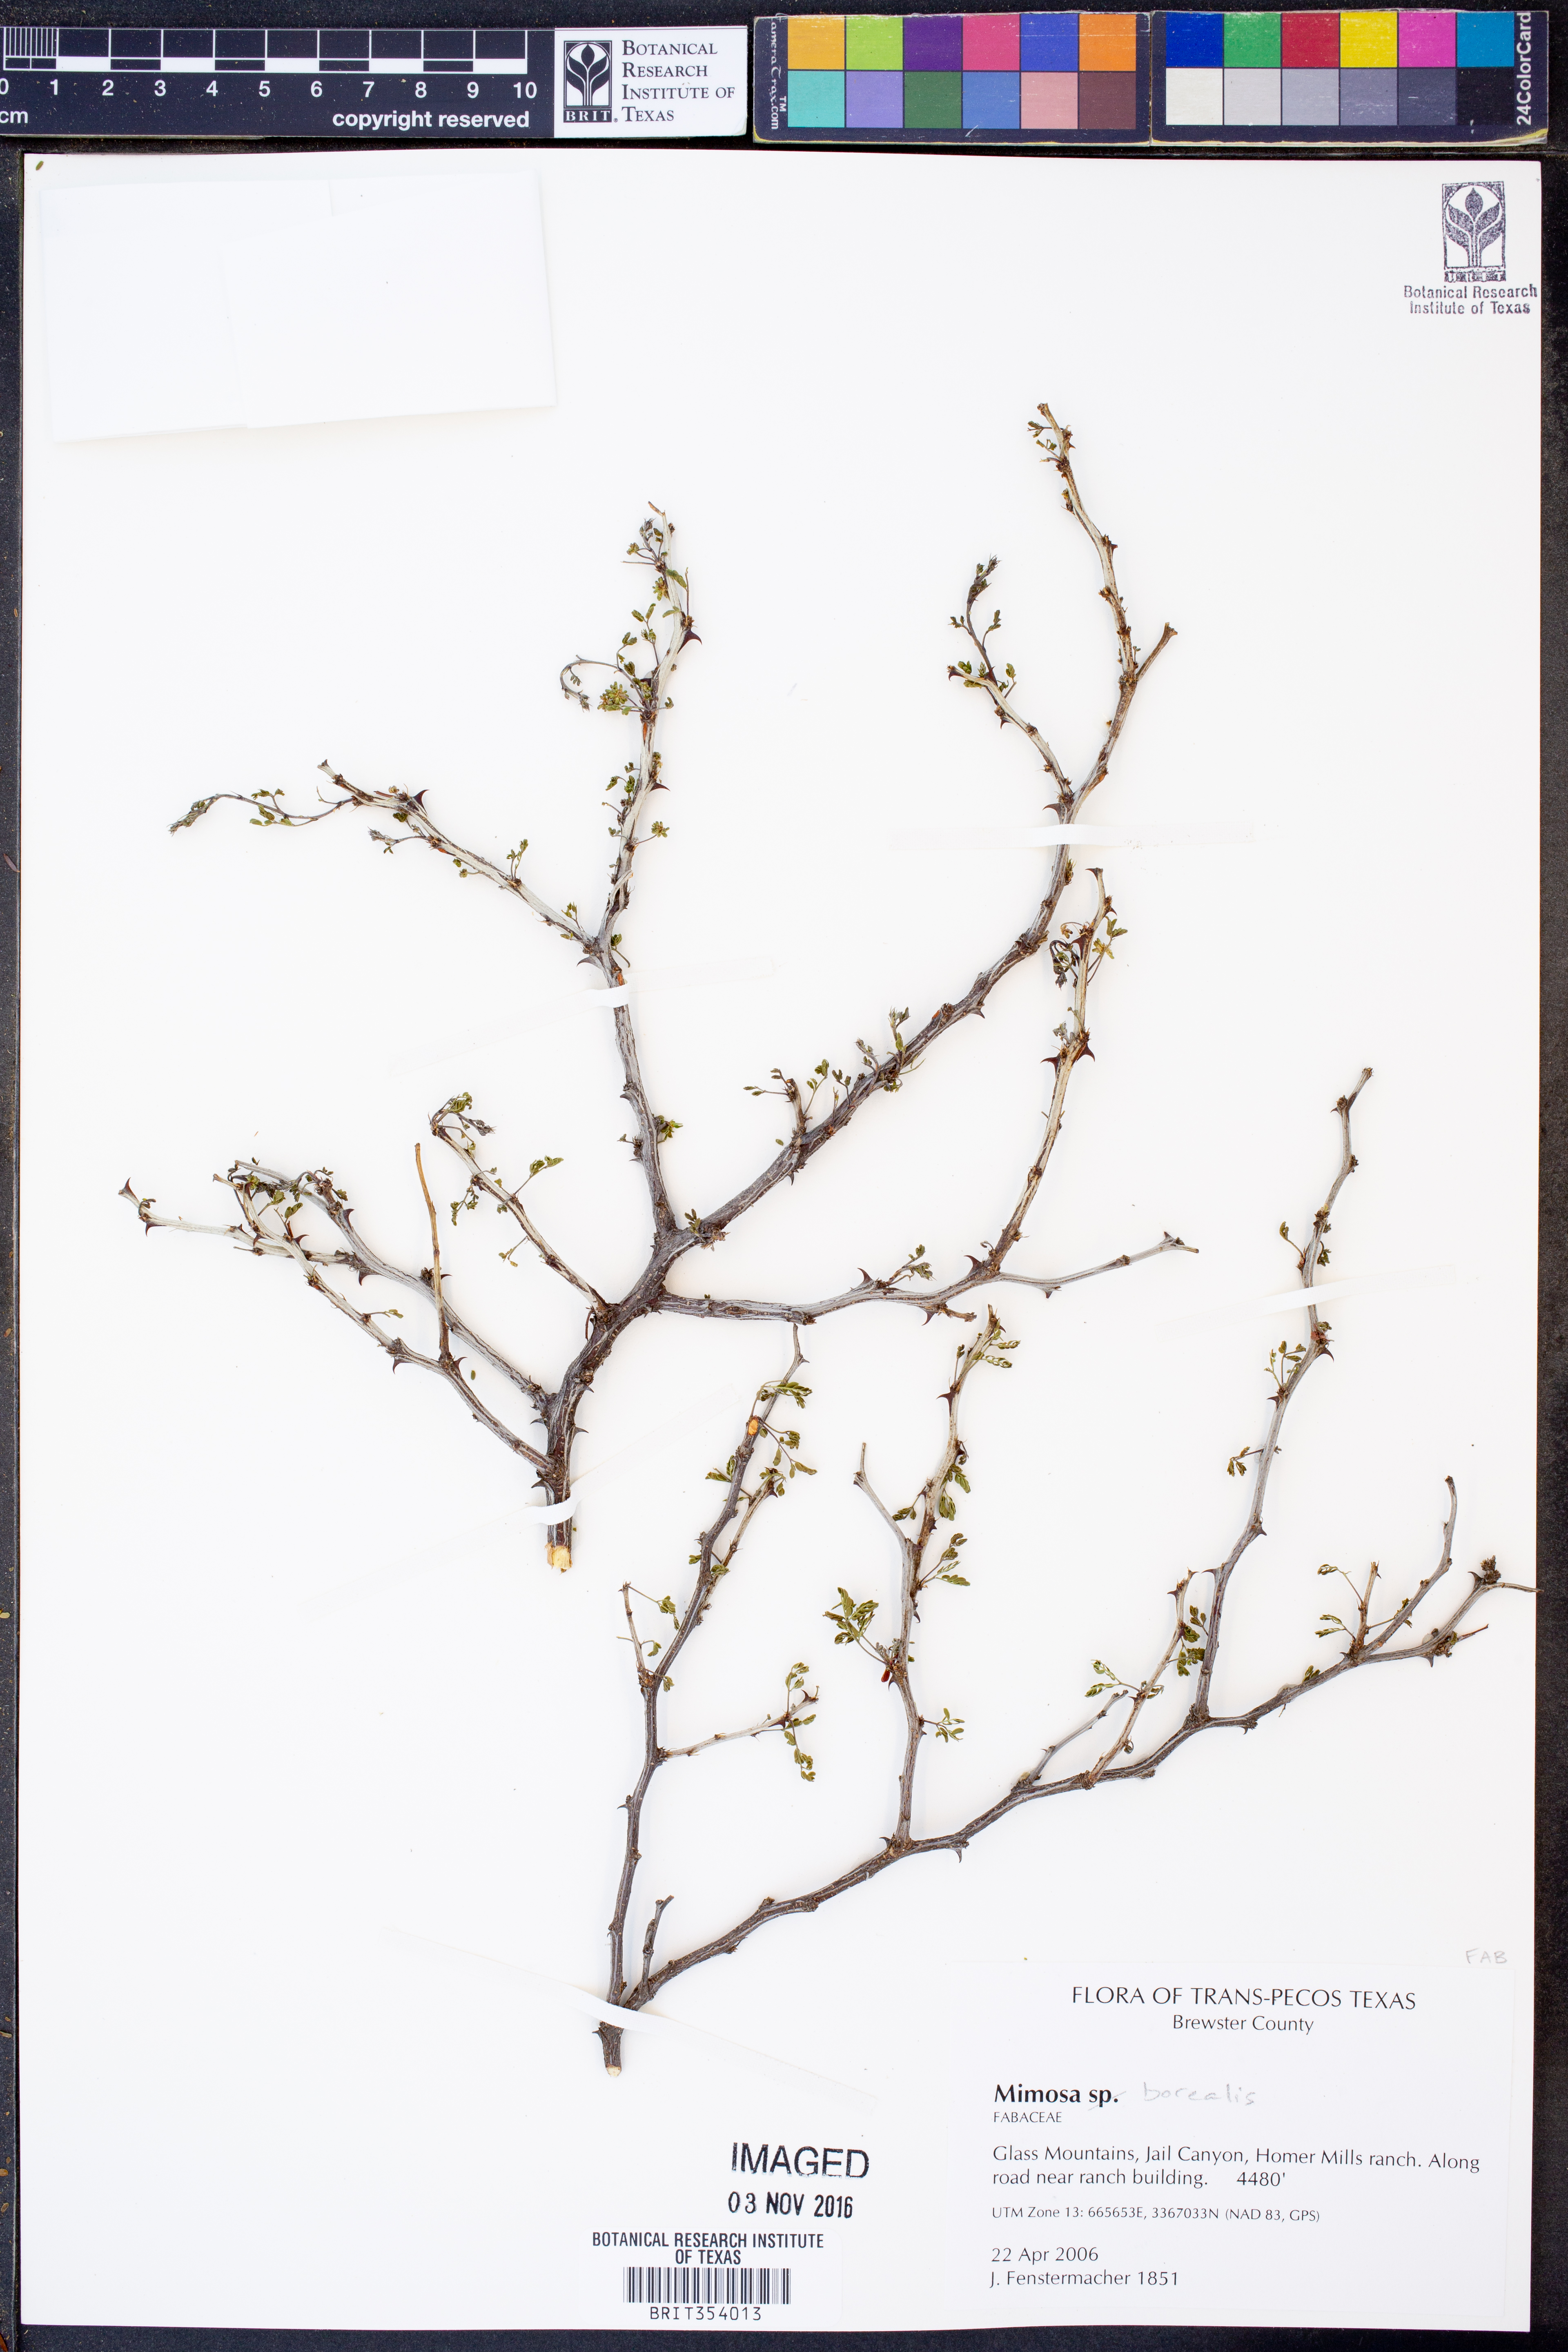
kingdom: Plantae
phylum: Tracheophyta
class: Magnoliopsida
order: Fabales
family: Fabaceae
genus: Mimosa
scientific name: Mimosa borealis
